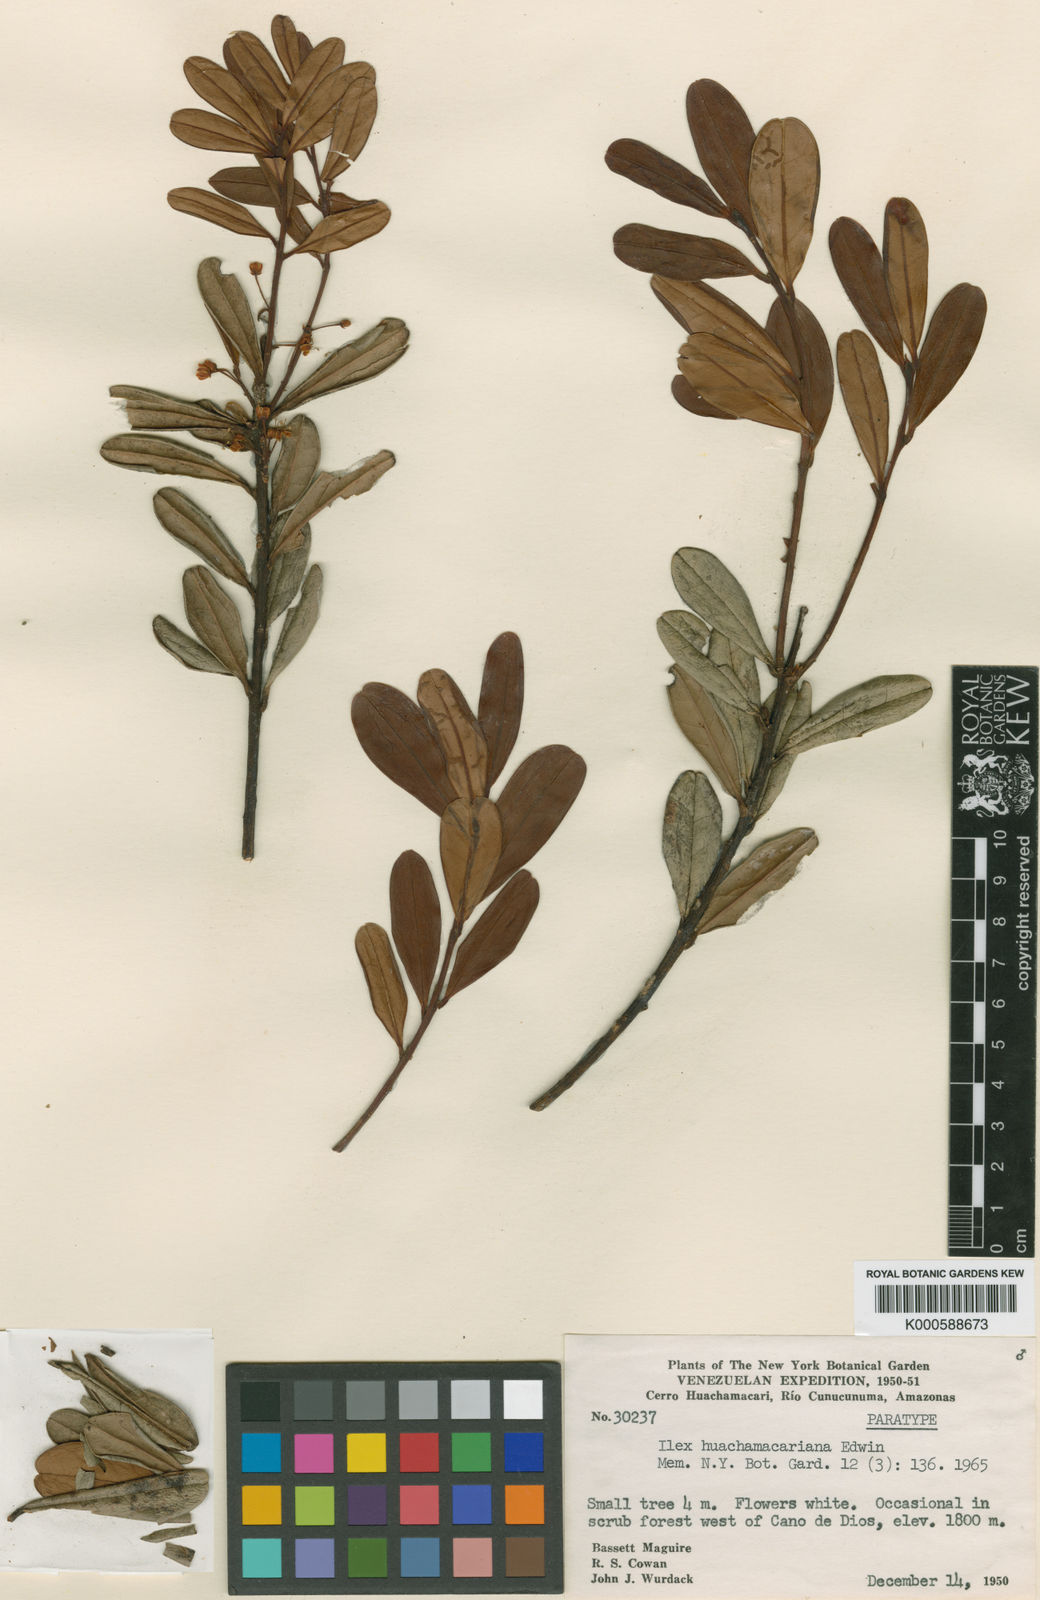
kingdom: Plantae
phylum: Tracheophyta
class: Magnoliopsida
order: Aquifoliales
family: Aquifoliaceae
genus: Ilex
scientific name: Ilex huachamacariana
